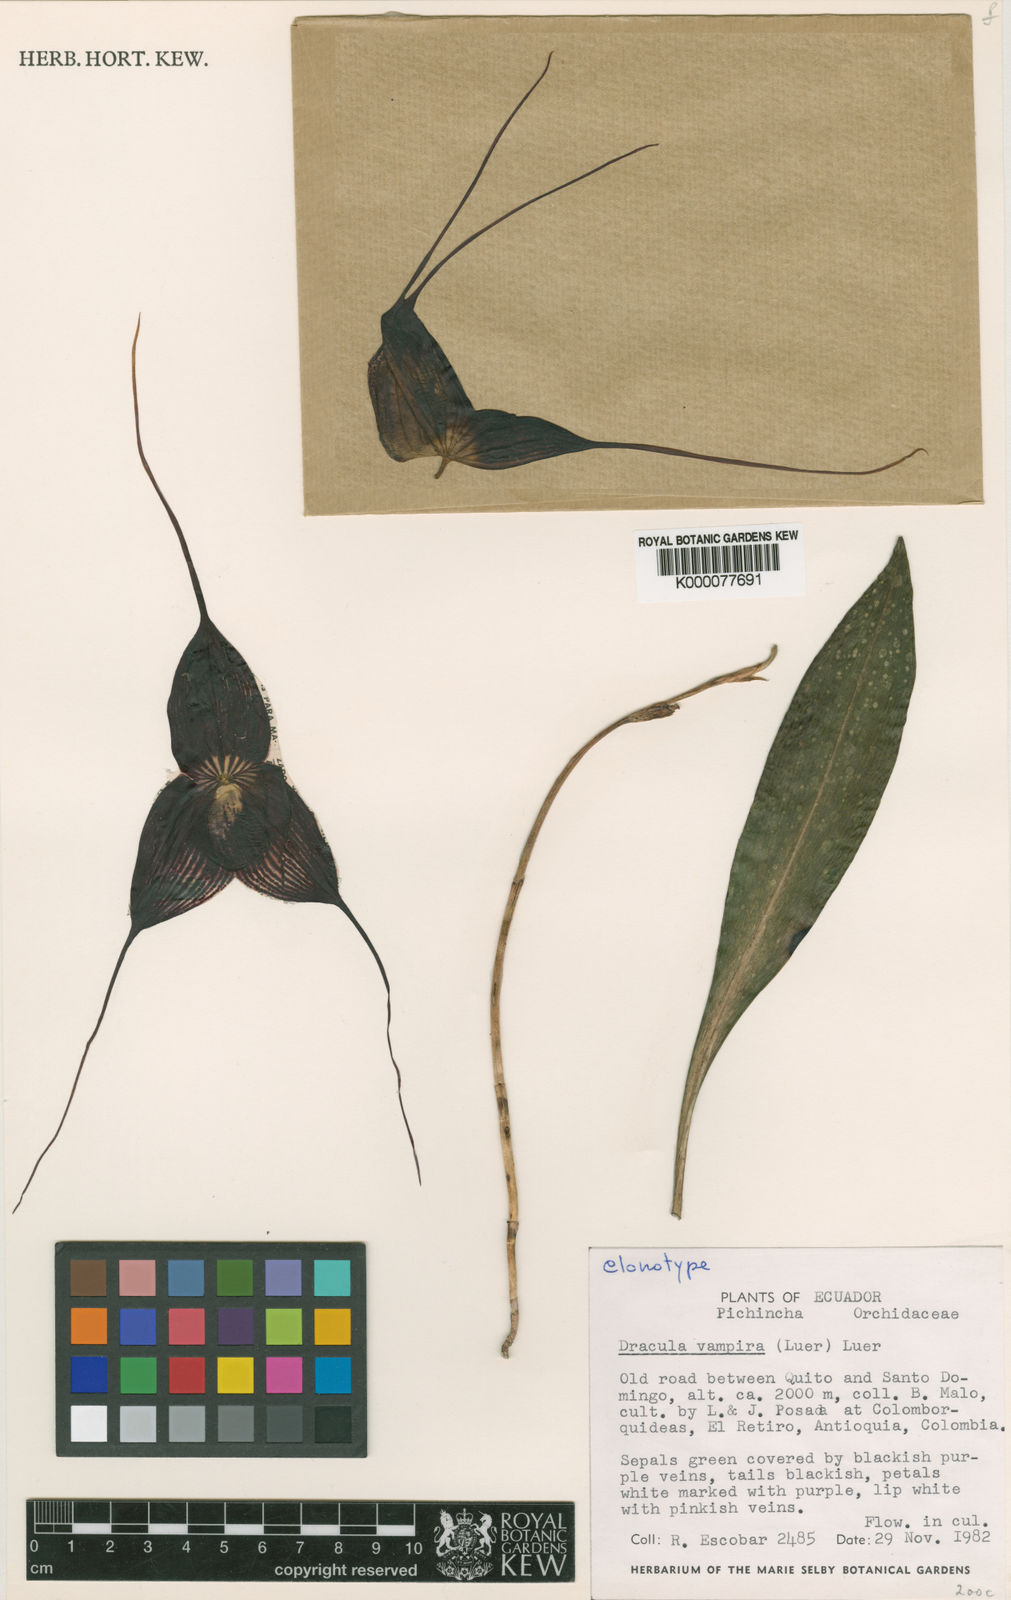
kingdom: Plantae
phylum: Tracheophyta
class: Liliopsida
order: Asparagales
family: Orchidaceae
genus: Dracula
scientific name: Dracula vampira
